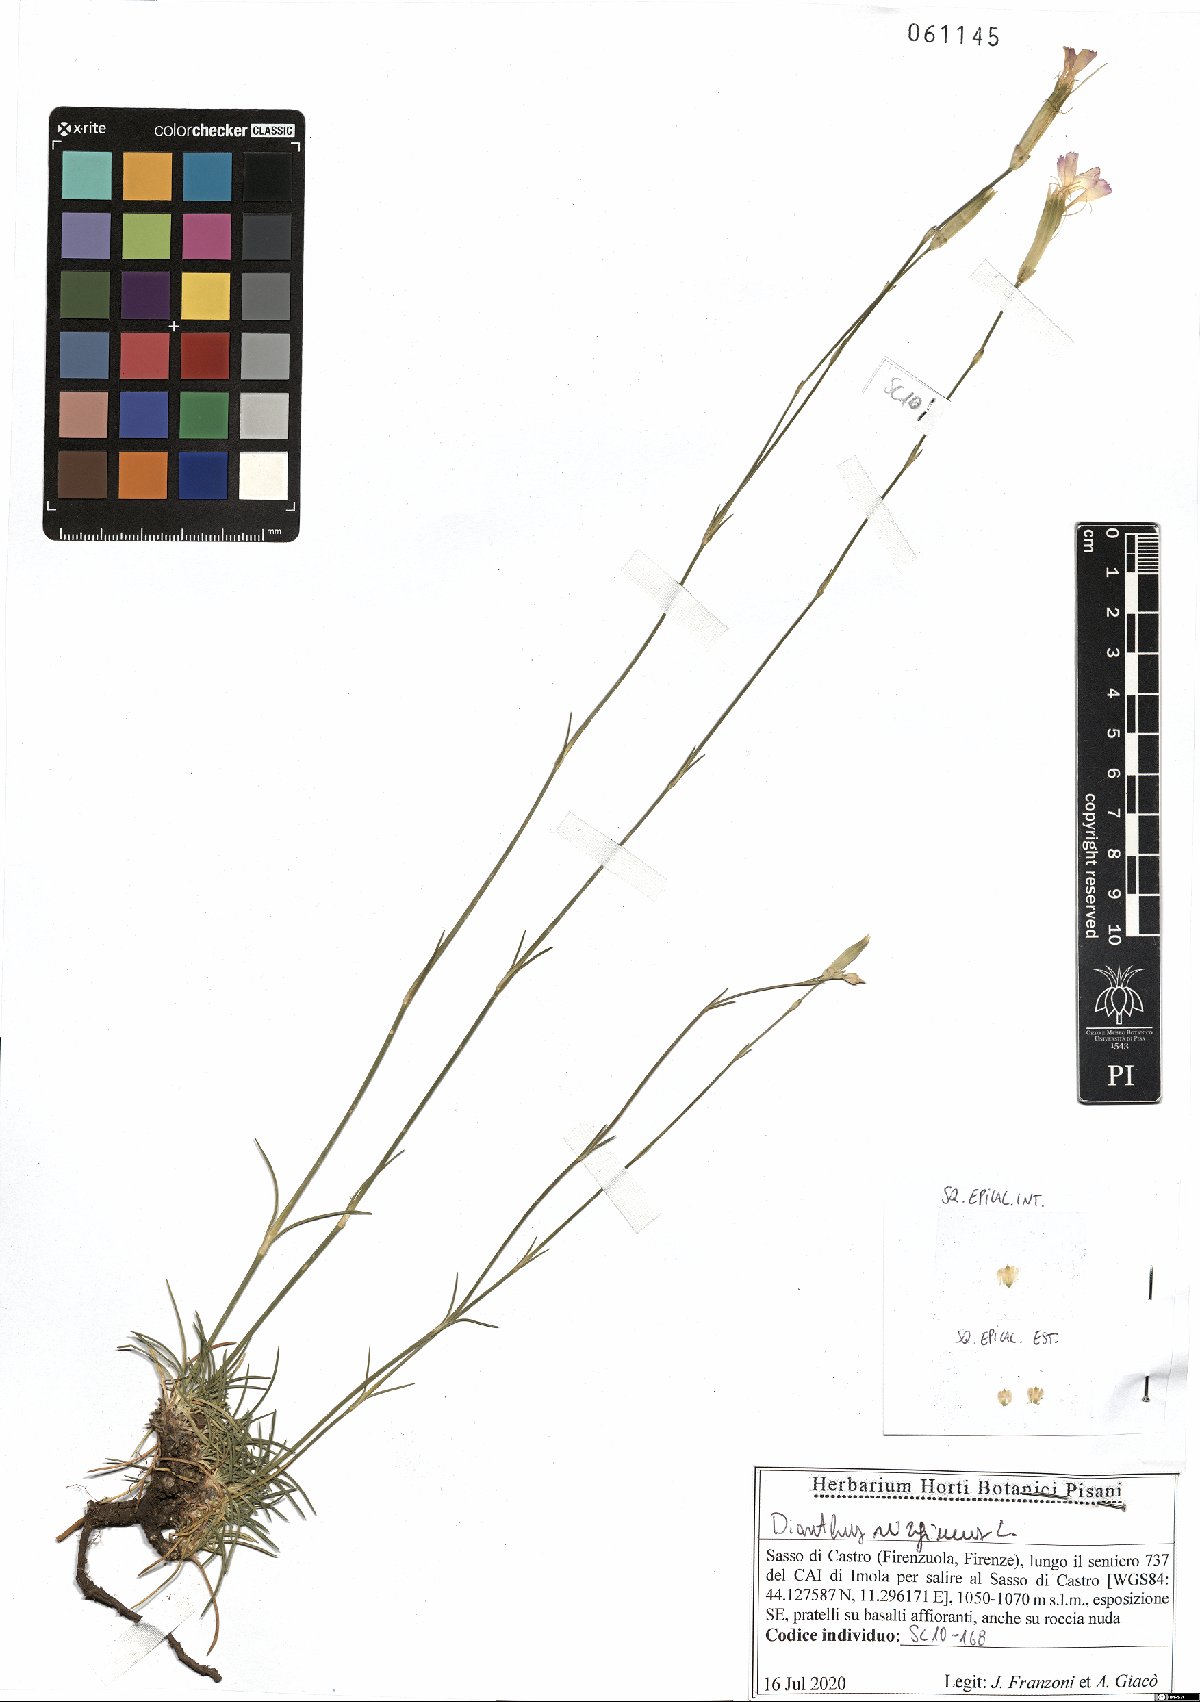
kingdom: Plantae
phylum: Tracheophyta
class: Magnoliopsida
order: Caryophyllales
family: Caryophyllaceae
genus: Dianthus
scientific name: Dianthus virgineus
